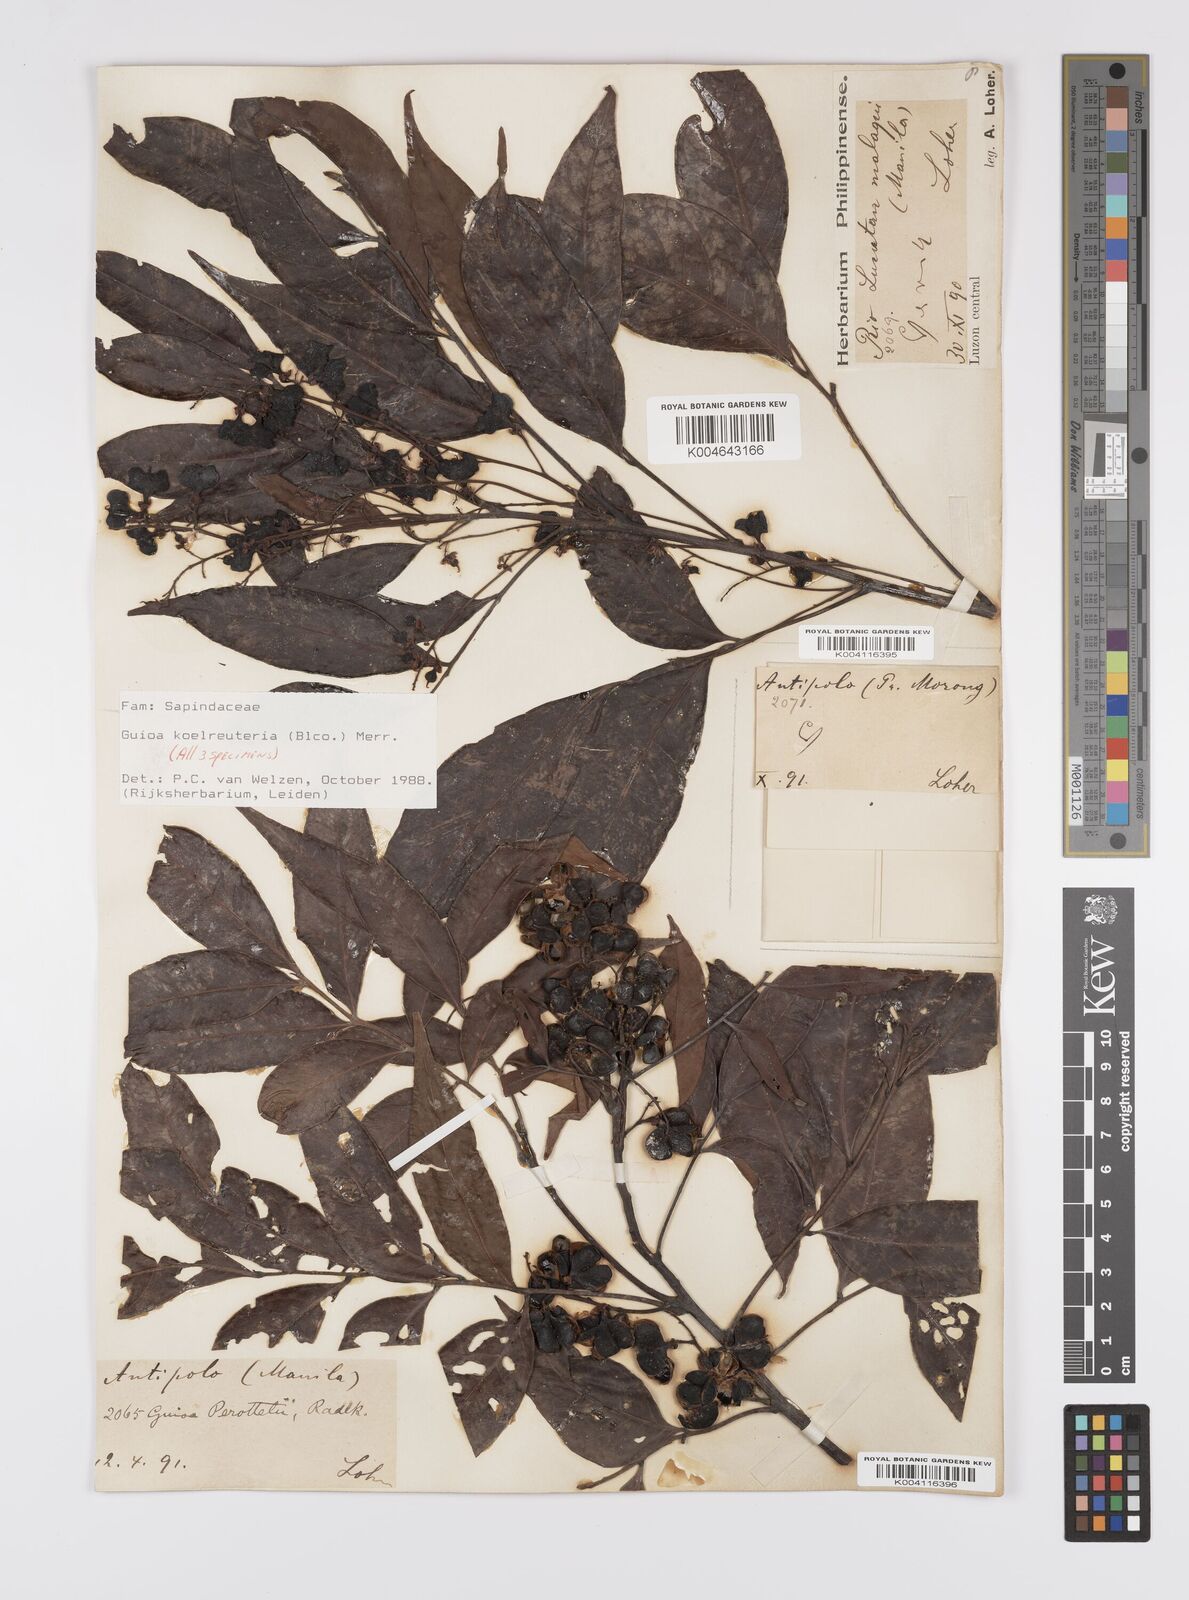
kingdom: Plantae
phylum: Tracheophyta
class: Magnoliopsida
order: Sapindales
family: Sapindaceae
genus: Guioa
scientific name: Guioa koelreuteria
